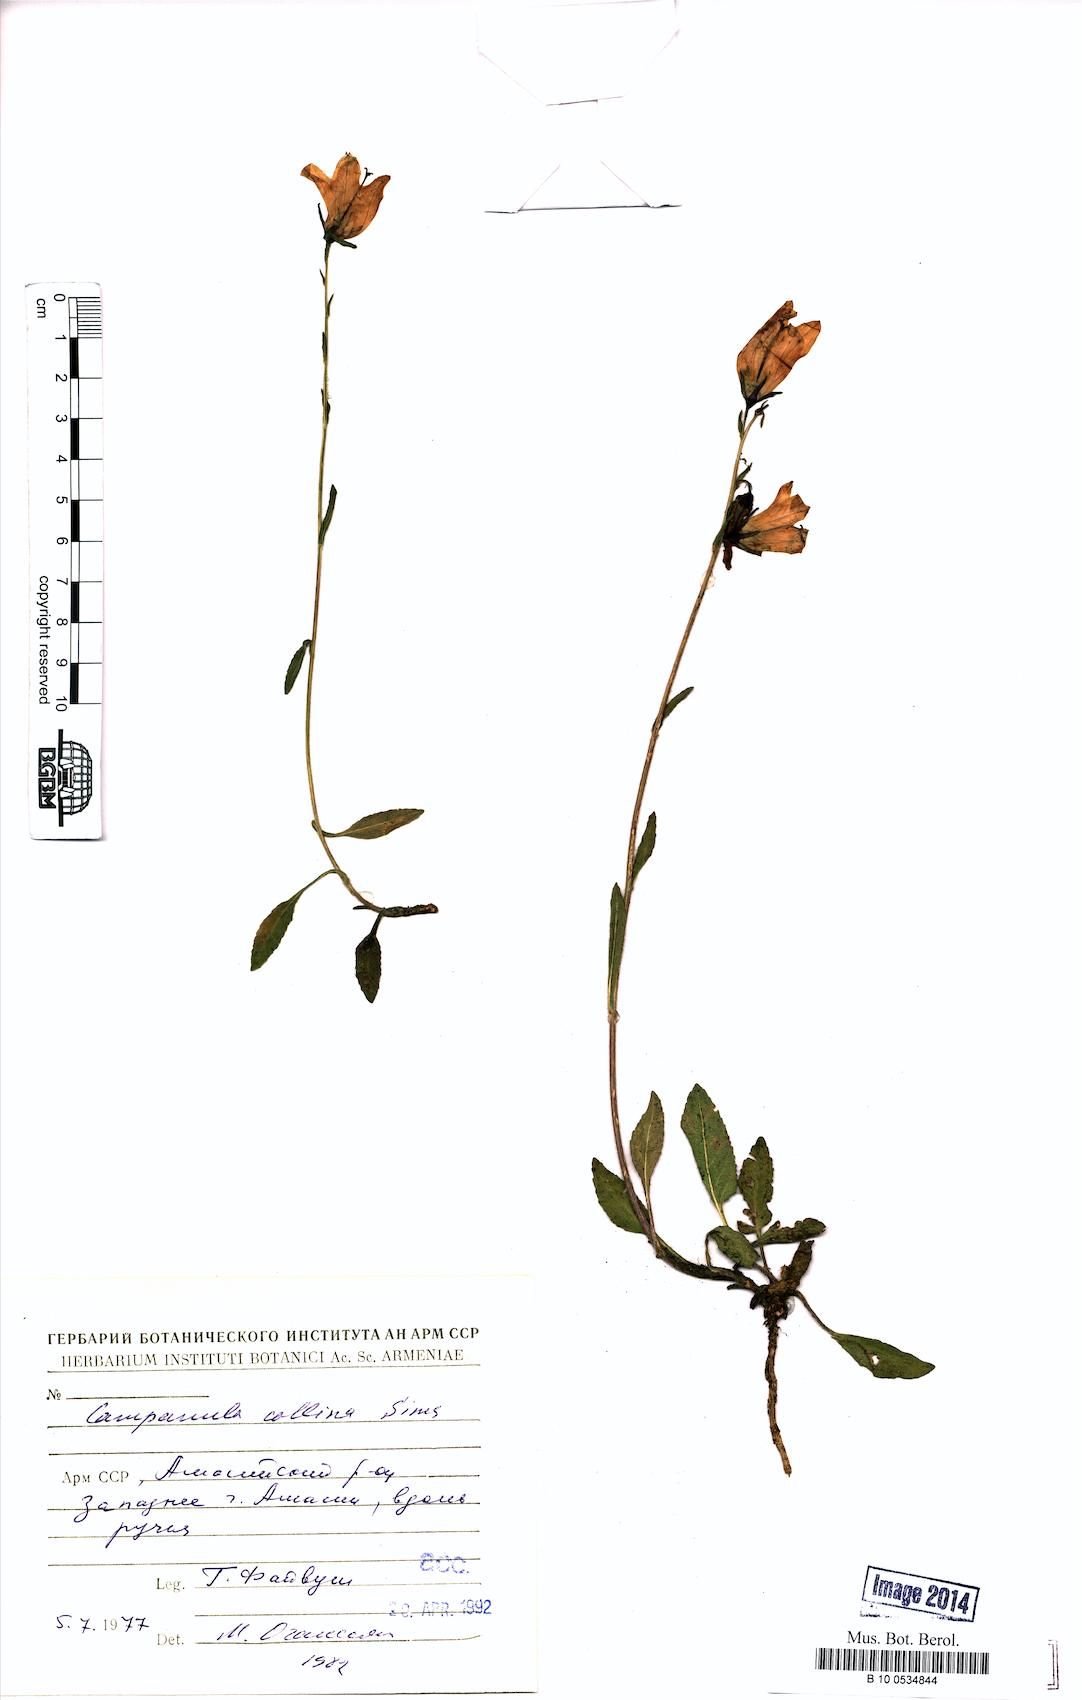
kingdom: Plantae
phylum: Tracheophyta
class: Magnoliopsida
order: Asterales
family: Campanulaceae
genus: Campanula
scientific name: Campanula collina
